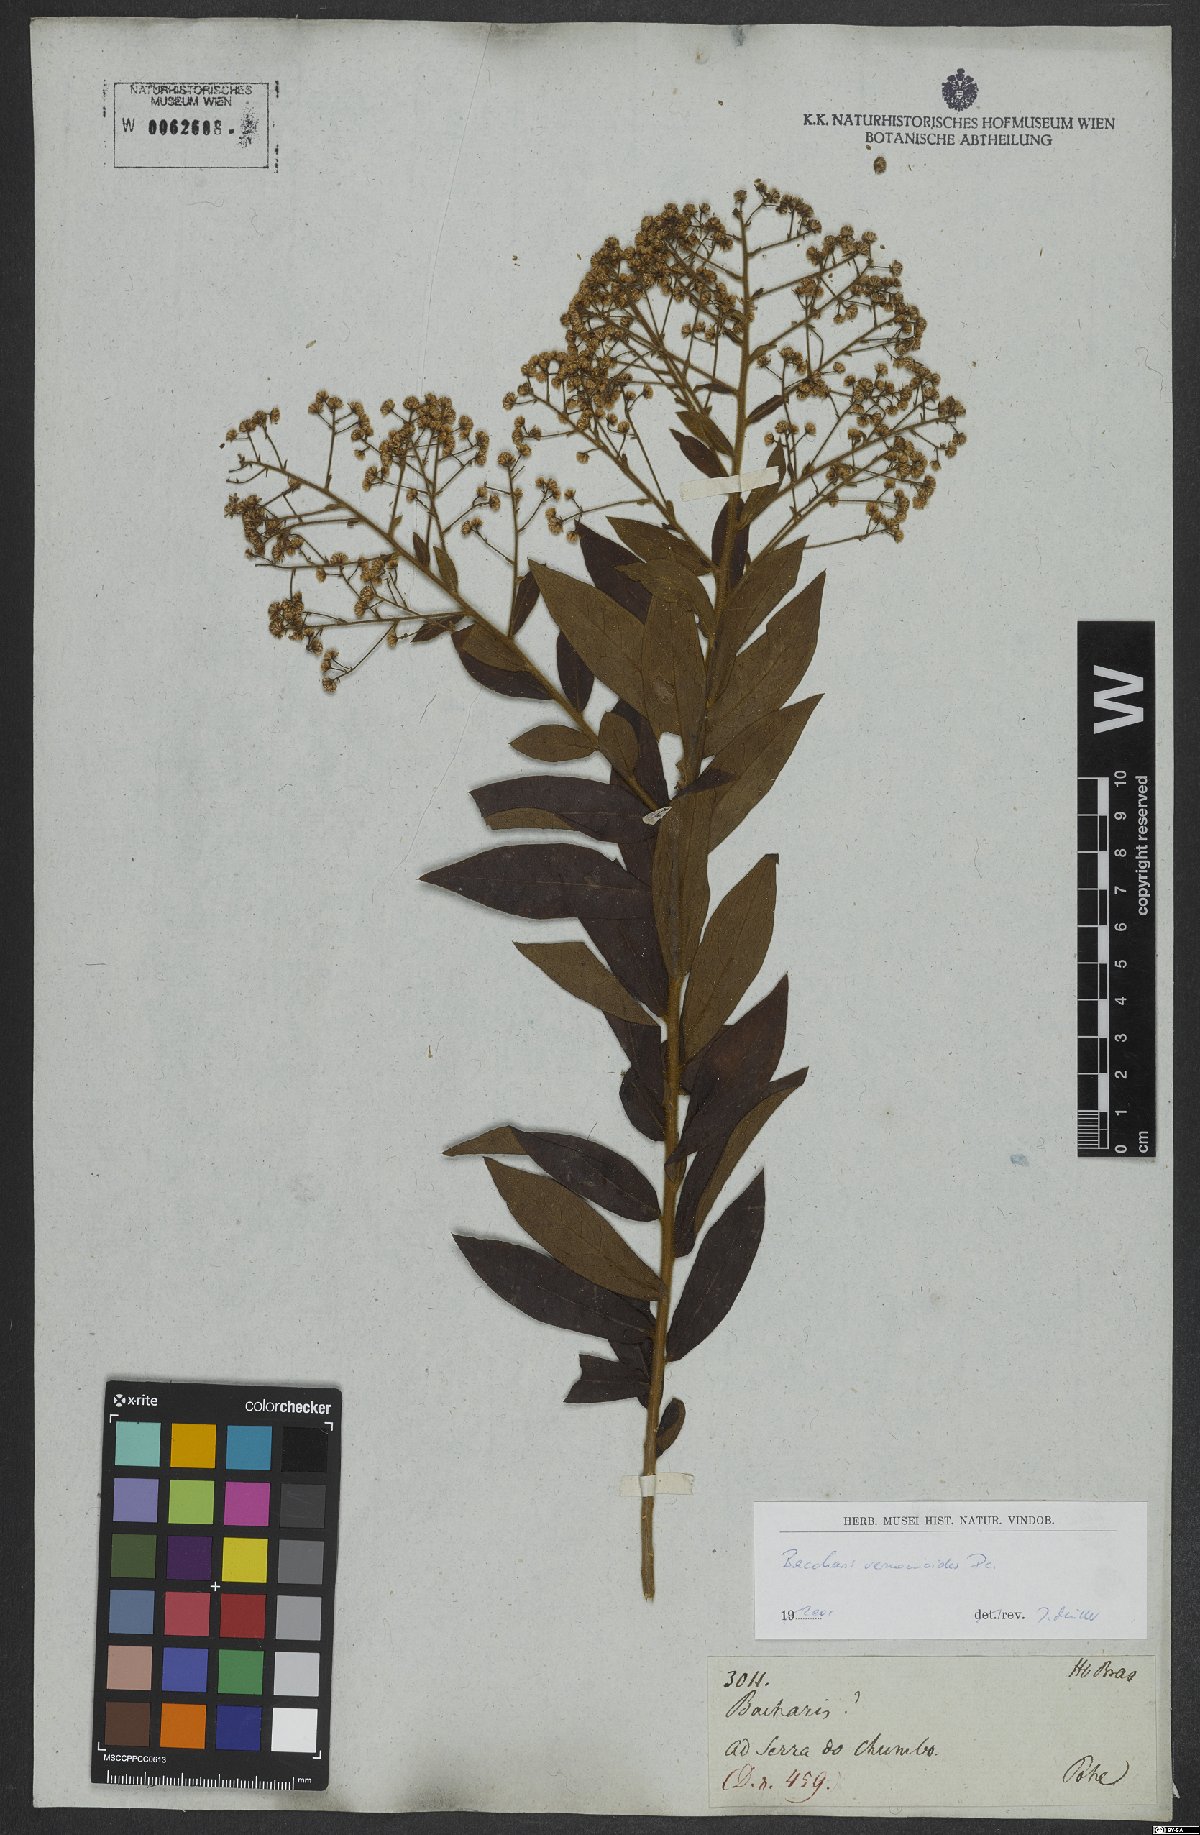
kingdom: Plantae
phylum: Tracheophyta
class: Magnoliopsida
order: Asterales
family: Asteraceae
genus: Baccharis
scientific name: Baccharis rufidula
